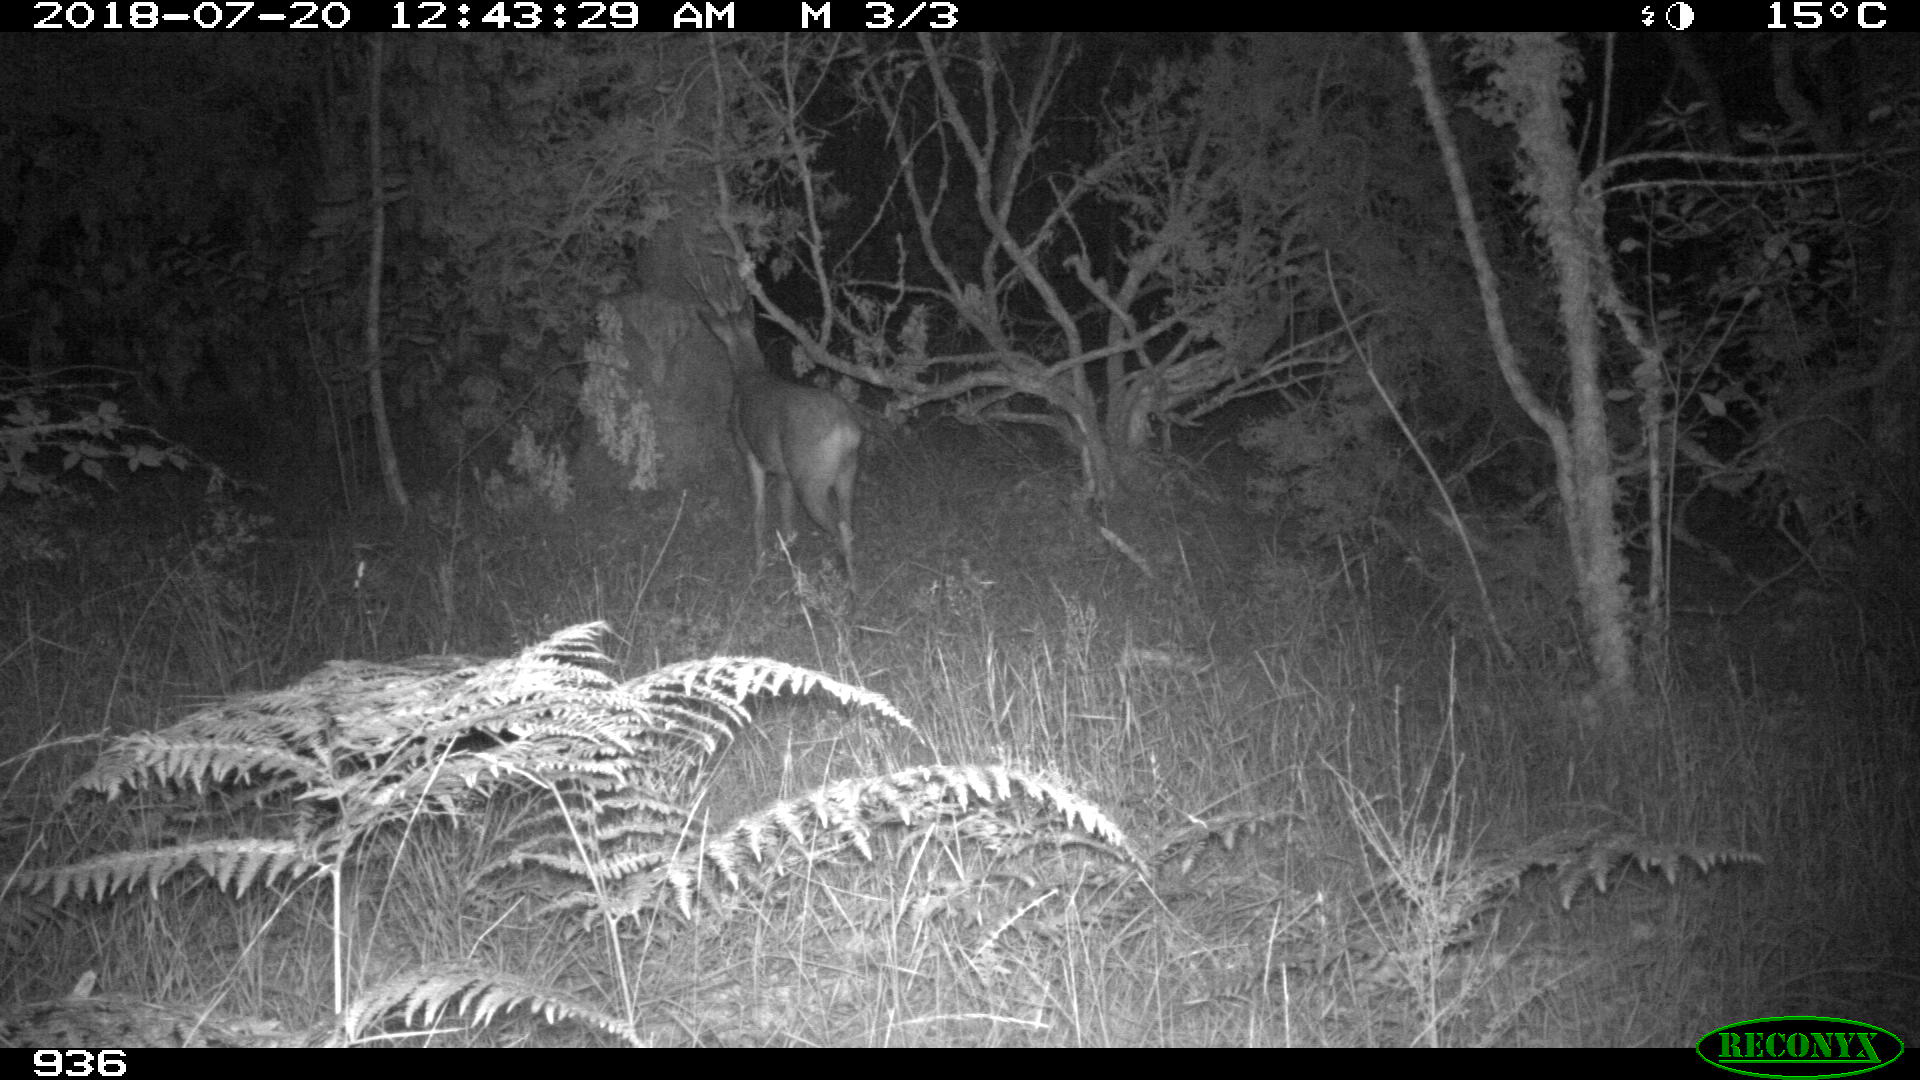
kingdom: Animalia
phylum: Chordata
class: Mammalia
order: Artiodactyla
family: Cervidae
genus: Capreolus
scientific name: Capreolus capreolus
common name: Western roe deer
